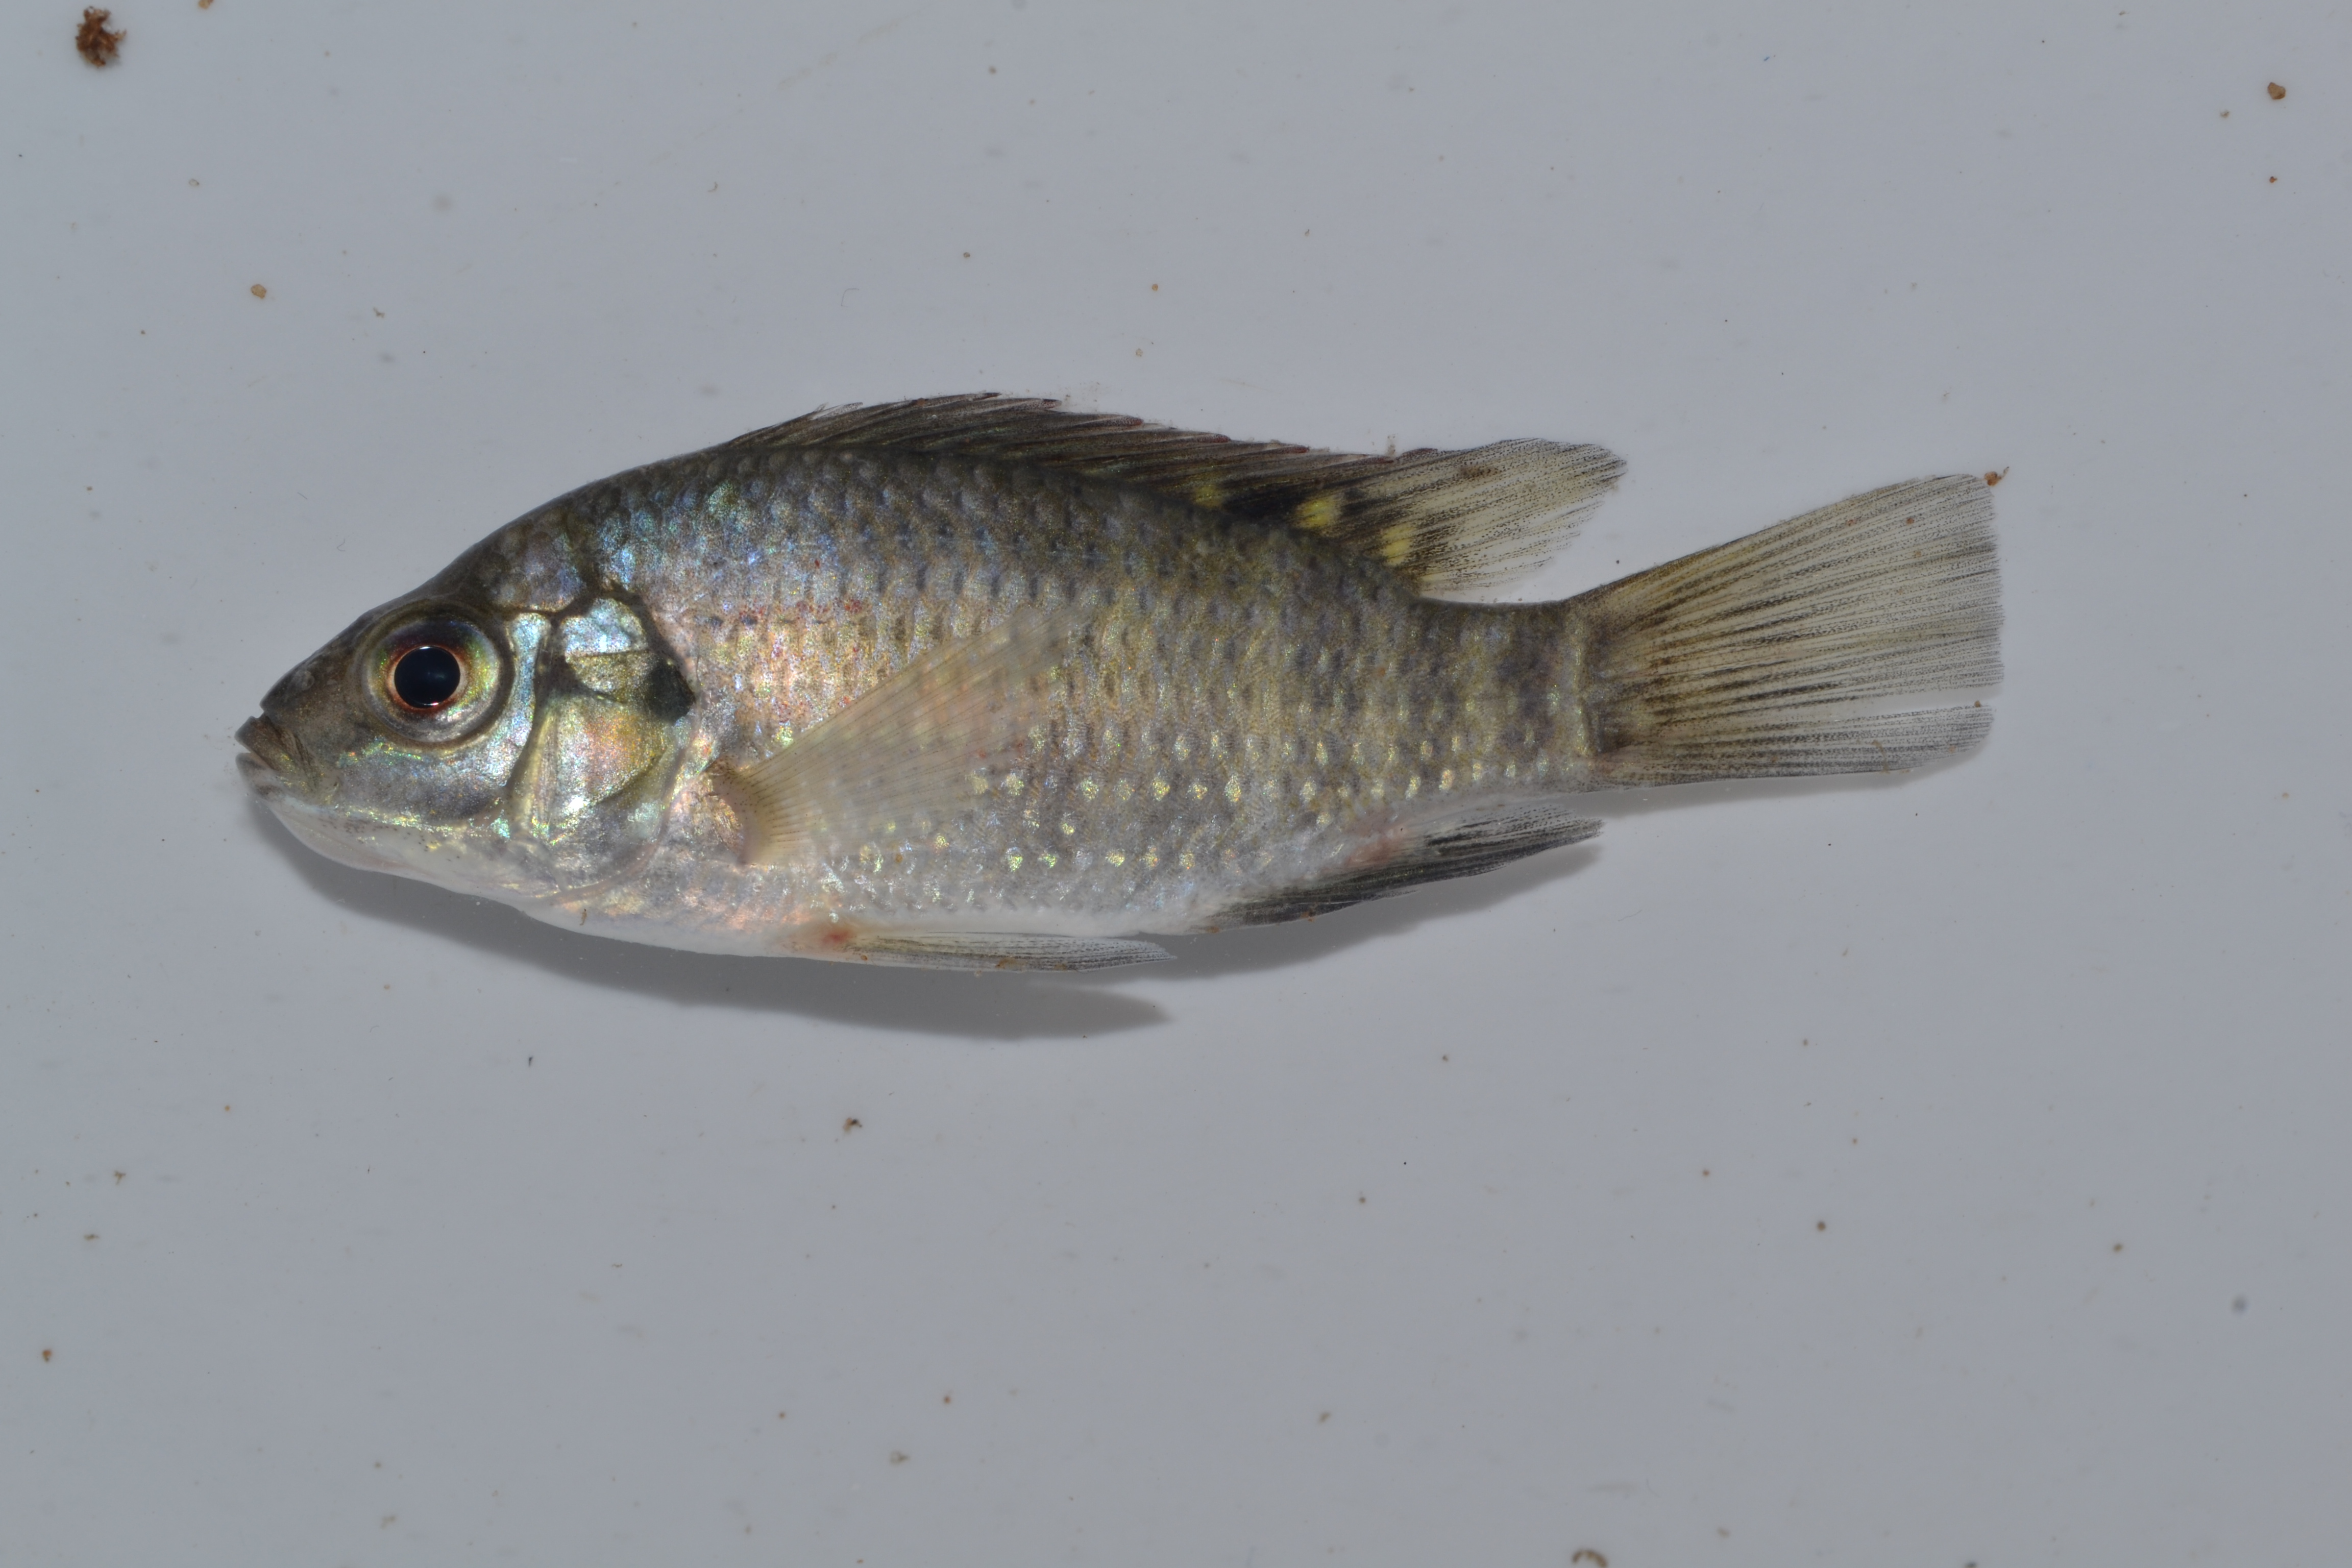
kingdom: Animalia
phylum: Chordata
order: Perciformes
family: Cichlidae
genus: Tilapia
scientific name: Tilapia sparrmanii
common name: Banded tilapia
